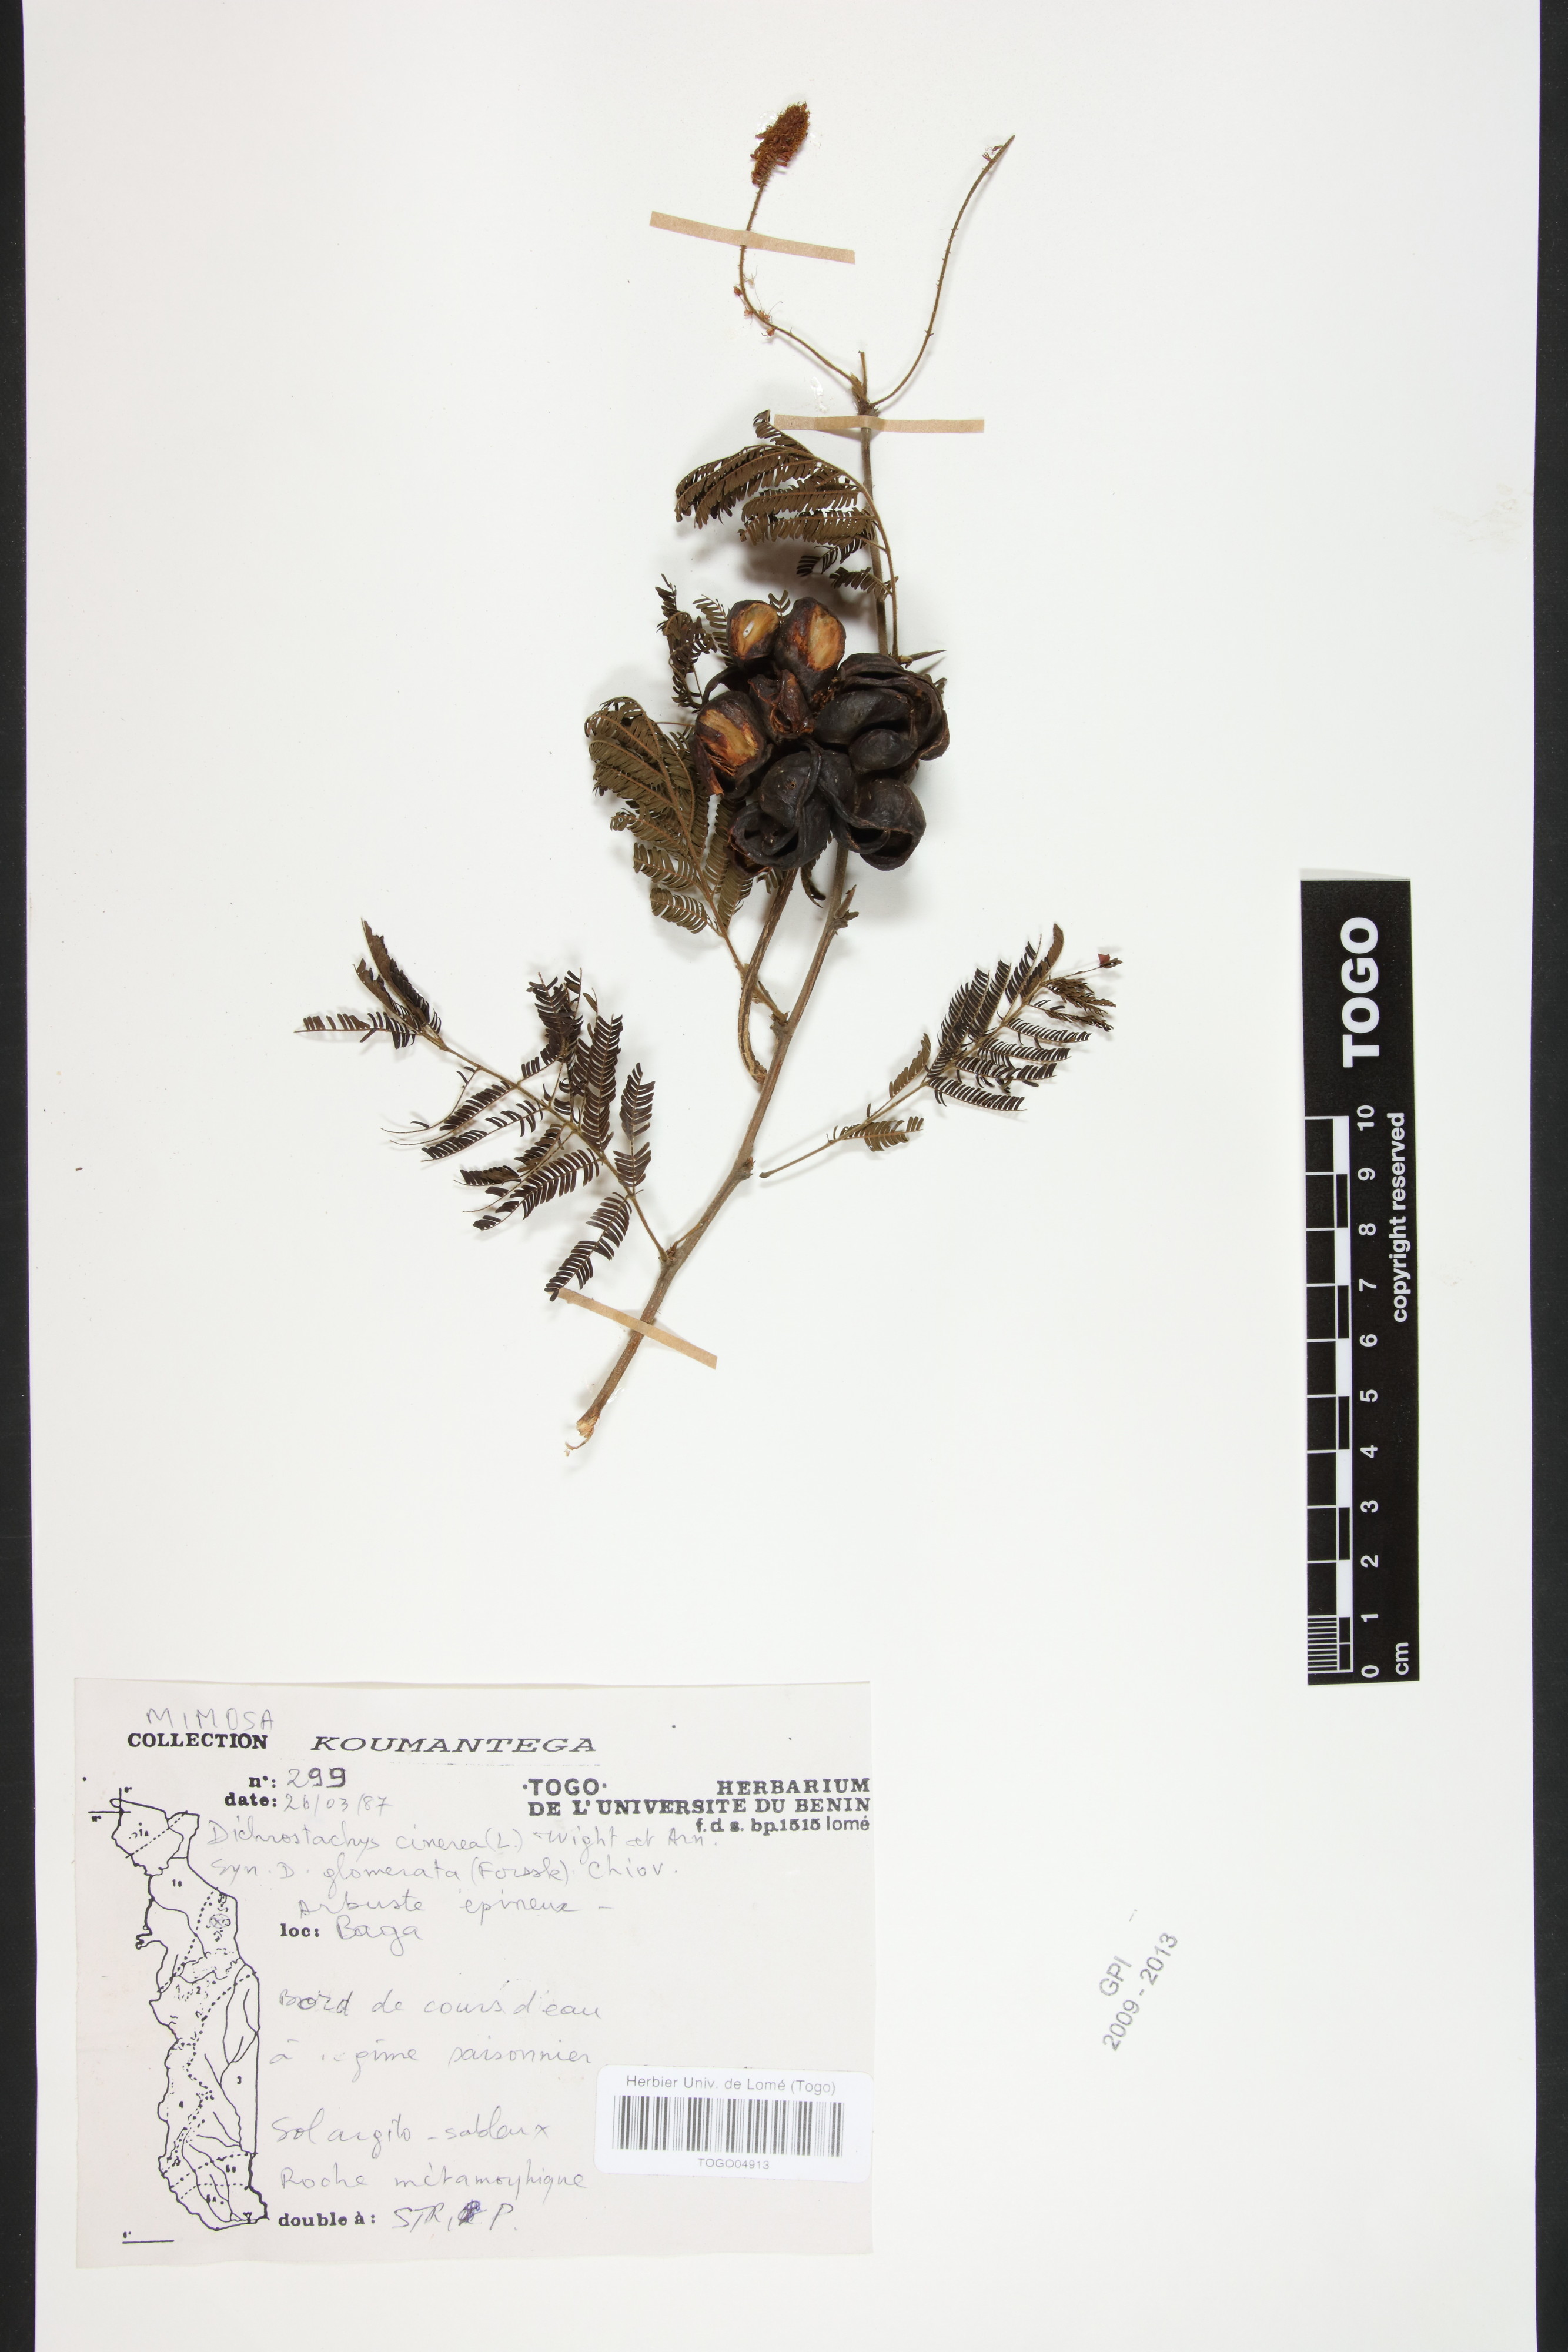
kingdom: Plantae
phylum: Tracheophyta
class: Magnoliopsida
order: Fabales
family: Fabaceae
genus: Dichrostachys
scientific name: Dichrostachys cinerea
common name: Sicklebush
